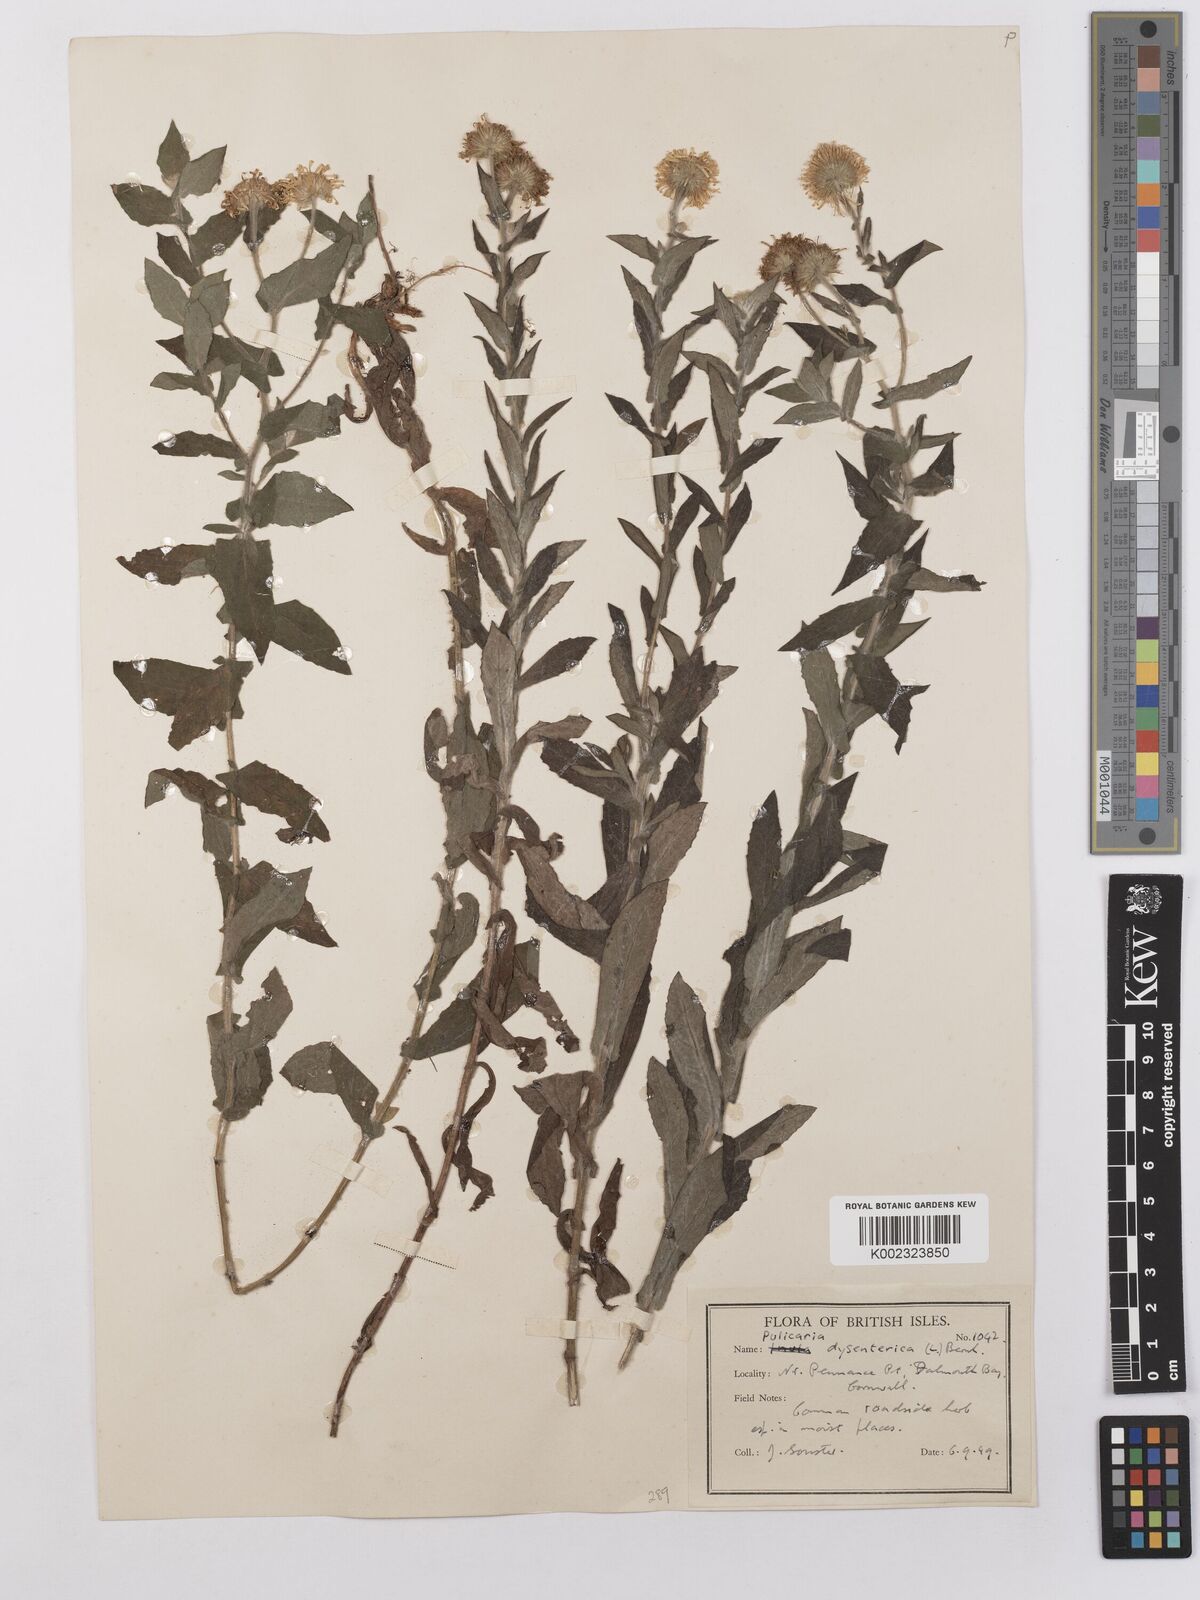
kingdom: Plantae
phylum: Tracheophyta
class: Magnoliopsida
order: Asterales
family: Asteraceae
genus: Pulicaria
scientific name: Pulicaria dysenterica
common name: Common fleabane
